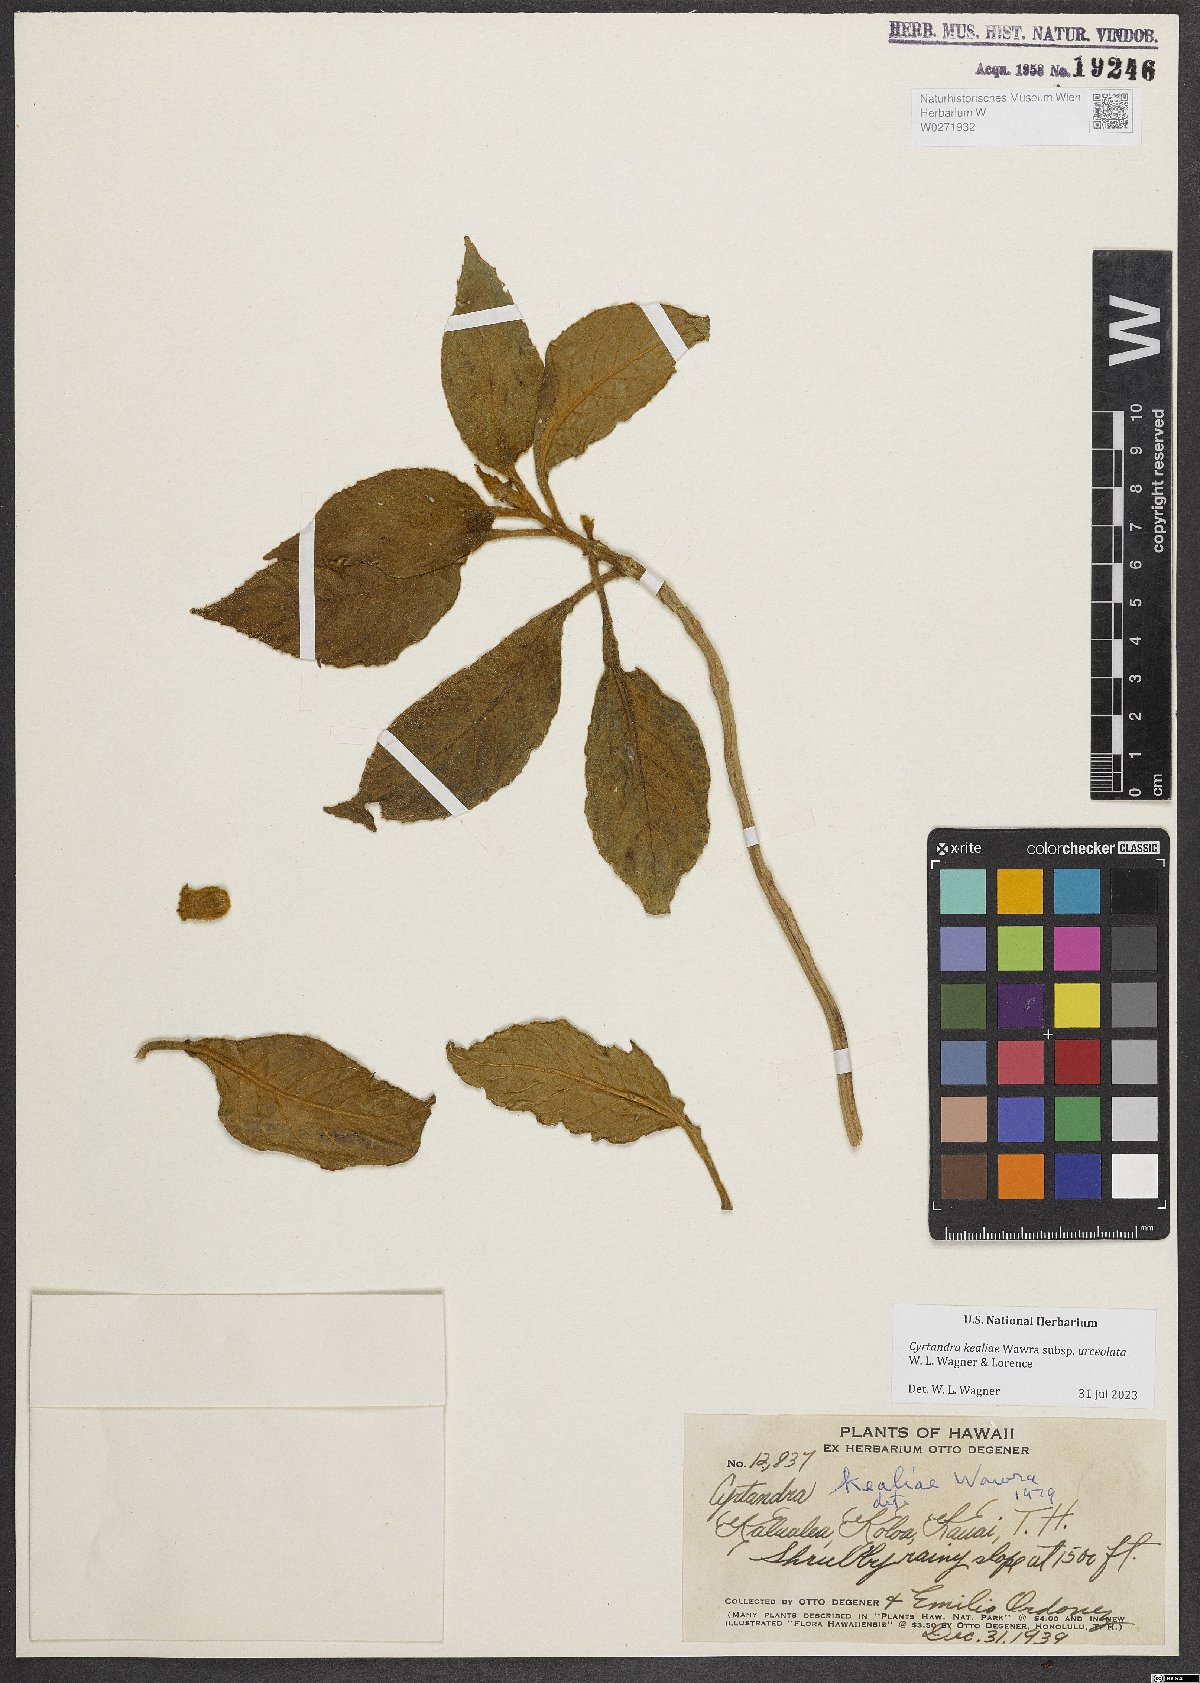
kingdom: Plantae
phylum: Tracheophyta
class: Magnoliopsida
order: Lamiales
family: Gesneriaceae
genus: Cyrtandra
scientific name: Cyrtandra kealiae
